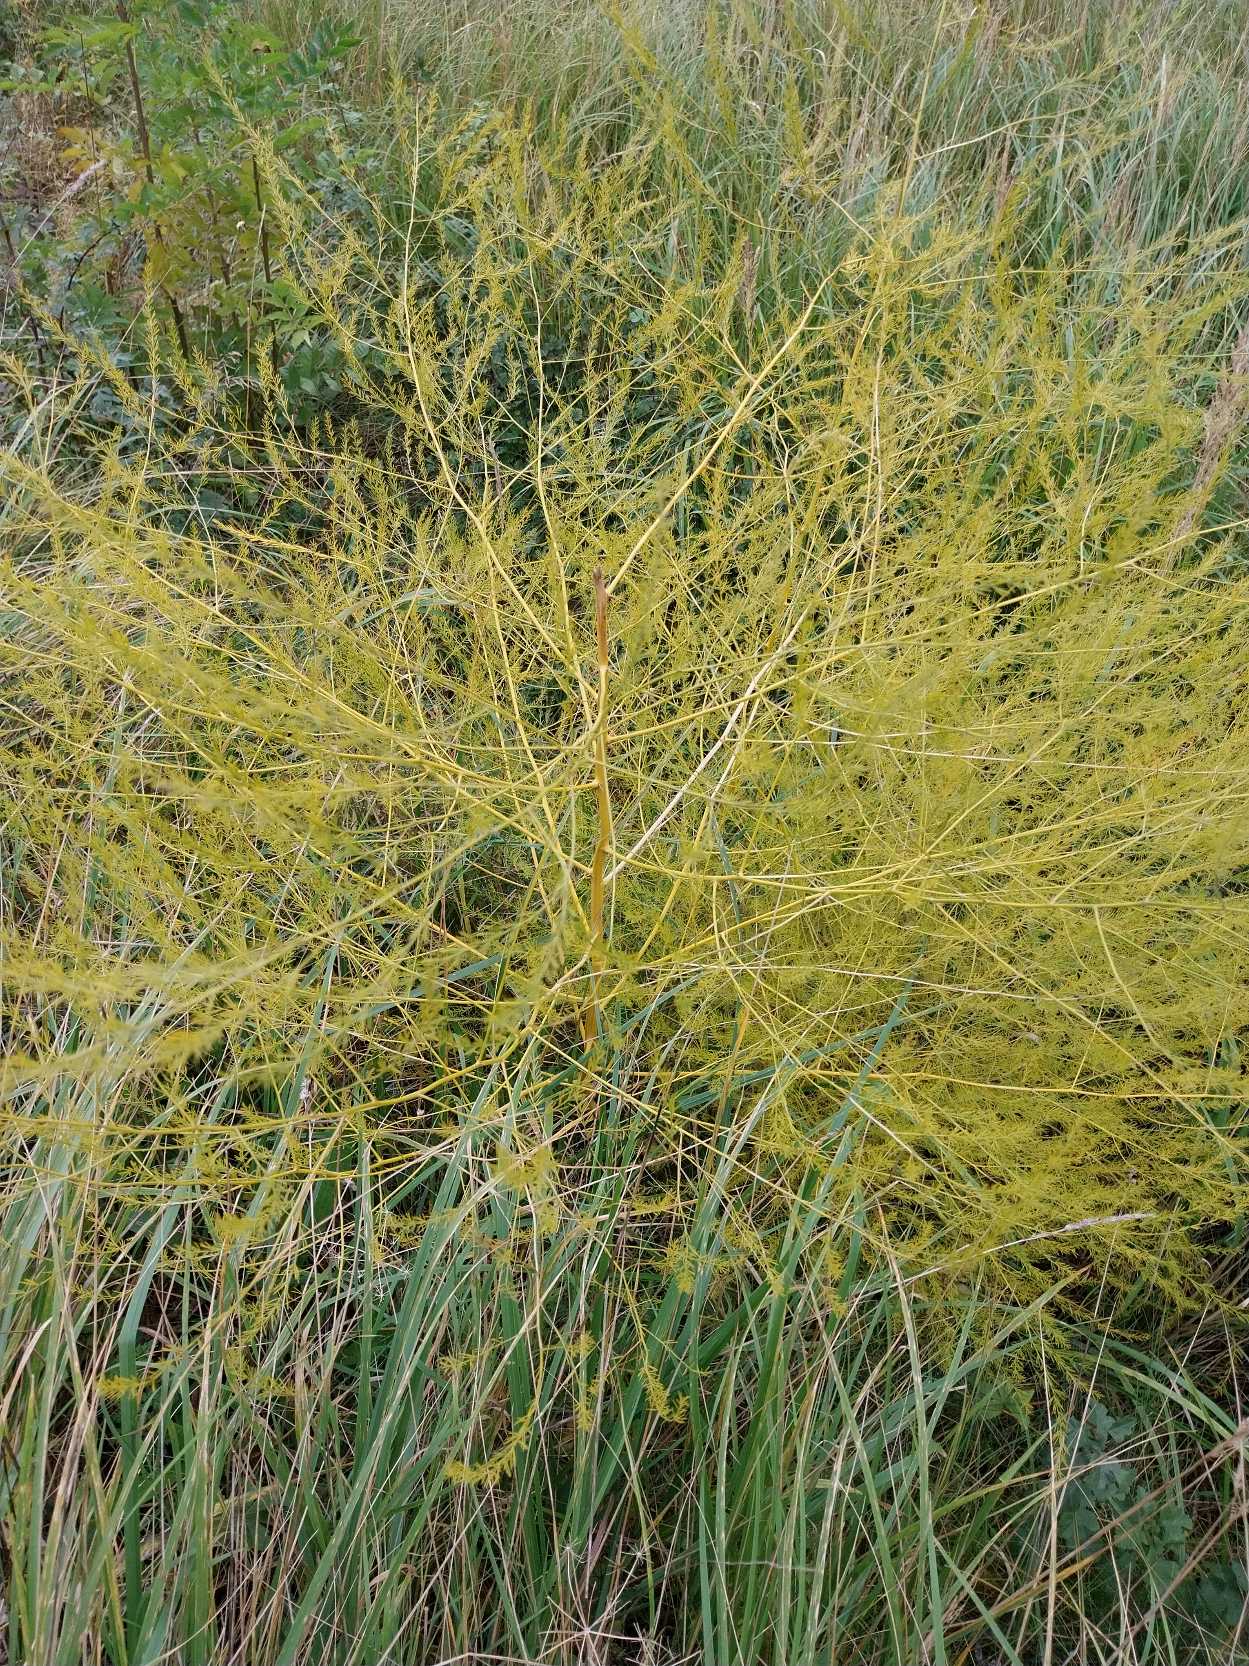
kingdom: Plantae
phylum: Tracheophyta
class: Liliopsida
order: Asparagales
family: Asparagaceae
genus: Asparagus
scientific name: Asparagus officinalis
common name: Asparges
